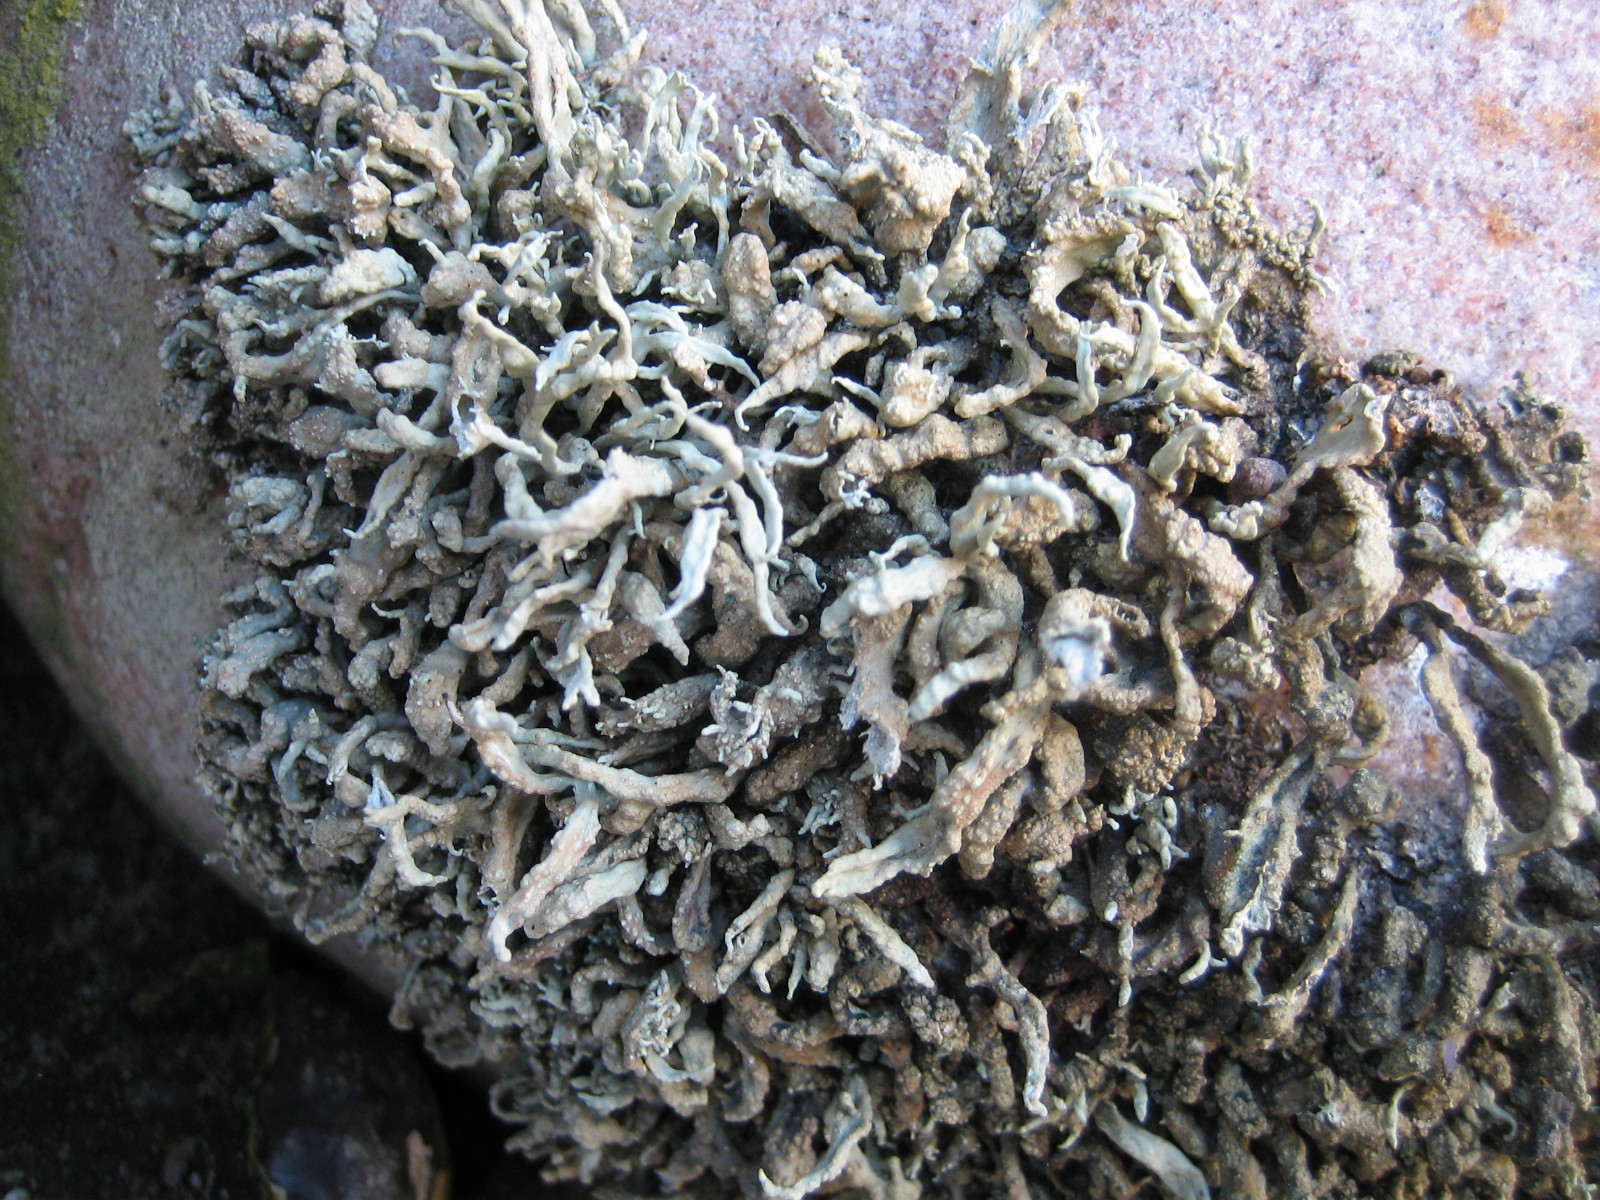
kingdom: Fungi
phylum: Ascomycota
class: Lecanoromycetes
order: Lecanorales
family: Ramalinaceae
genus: Ramalina
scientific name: Ramalina siliquosa
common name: klippe-grenlav
